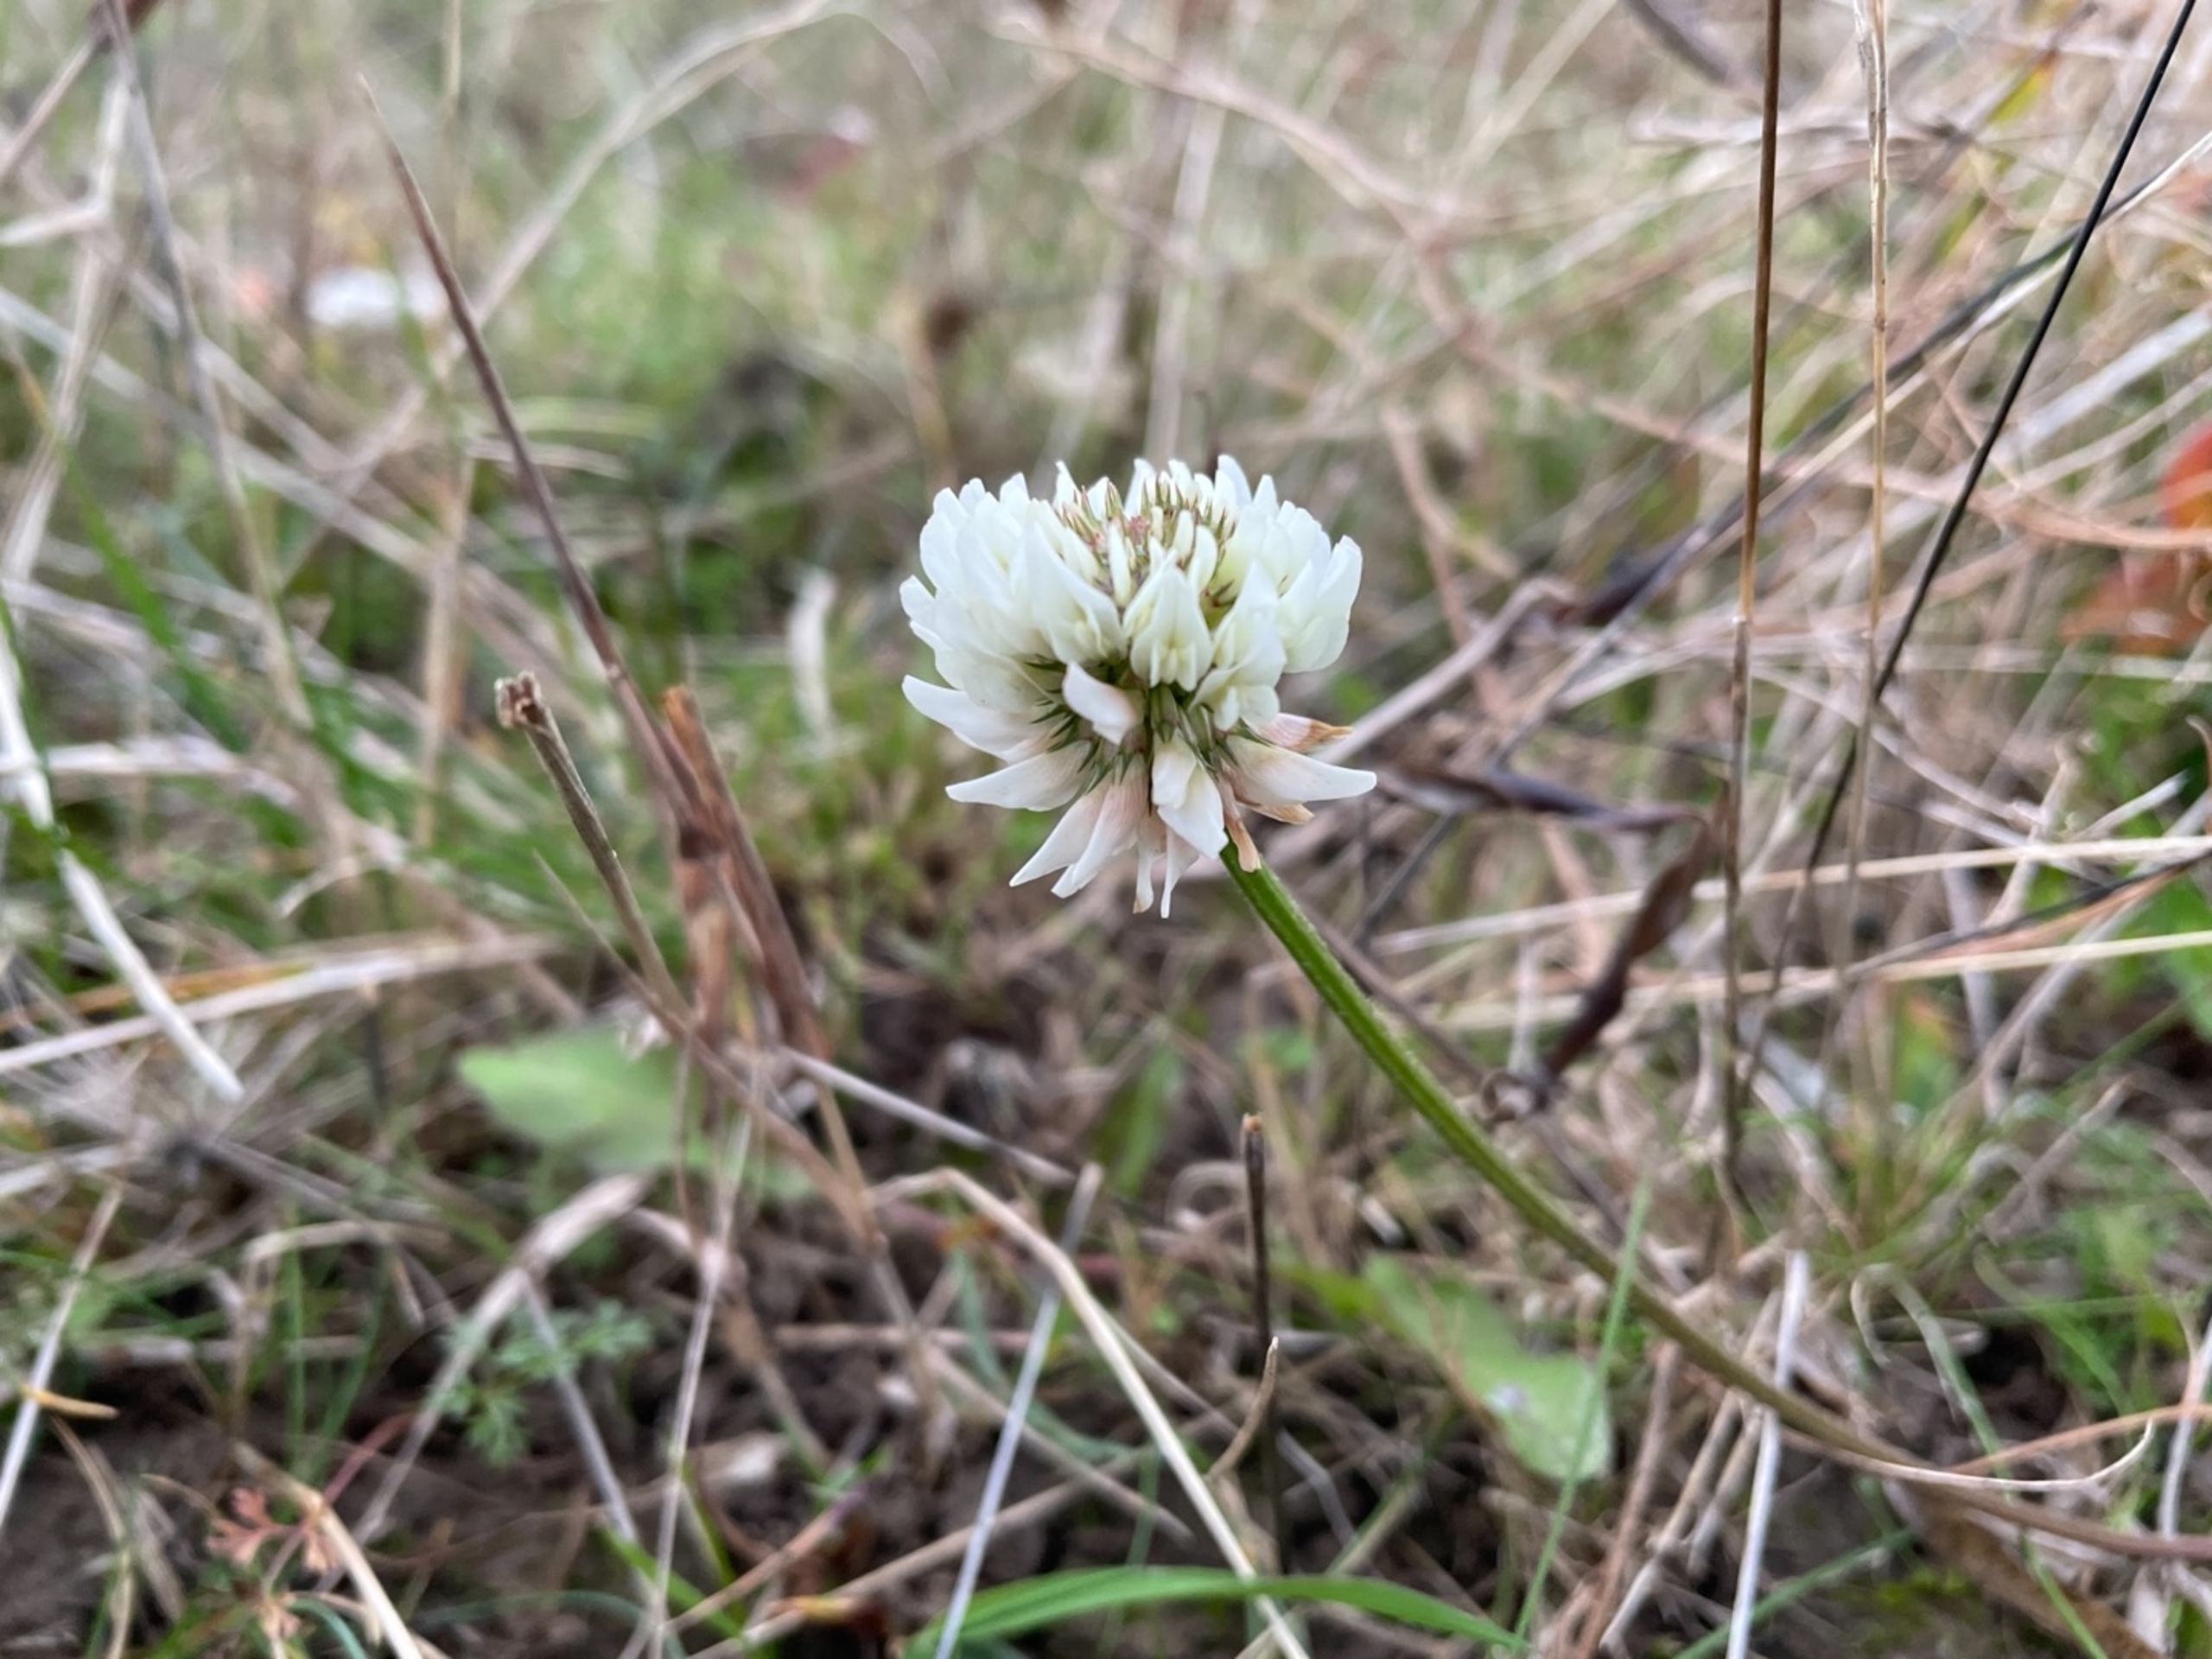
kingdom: Plantae
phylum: Tracheophyta
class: Magnoliopsida
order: Fabales
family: Fabaceae
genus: Trifolium
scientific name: Trifolium repens
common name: Hvid-kløver
